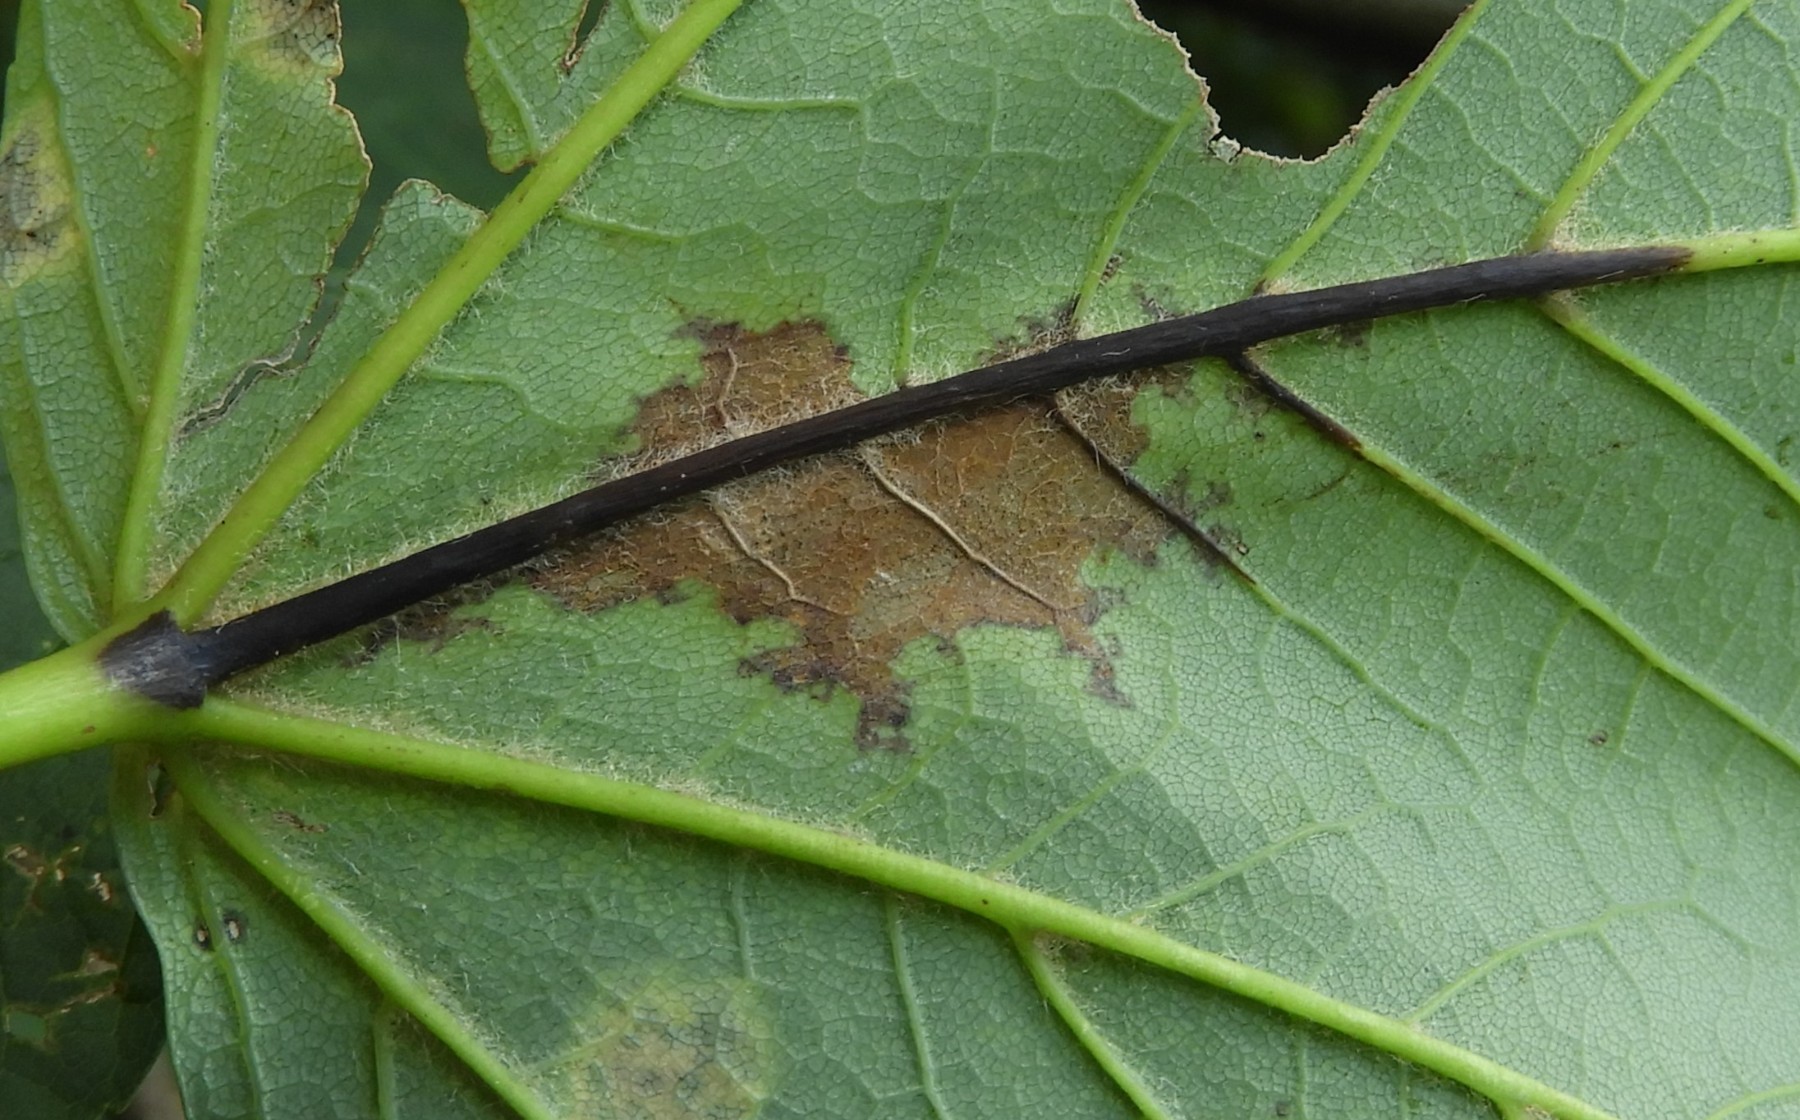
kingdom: Fungi
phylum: Ascomycota
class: Sordariomycetes
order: Diaporthales
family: Gnomoniaceae
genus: Pleuroceras
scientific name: Pleuroceras pseudoplatani
